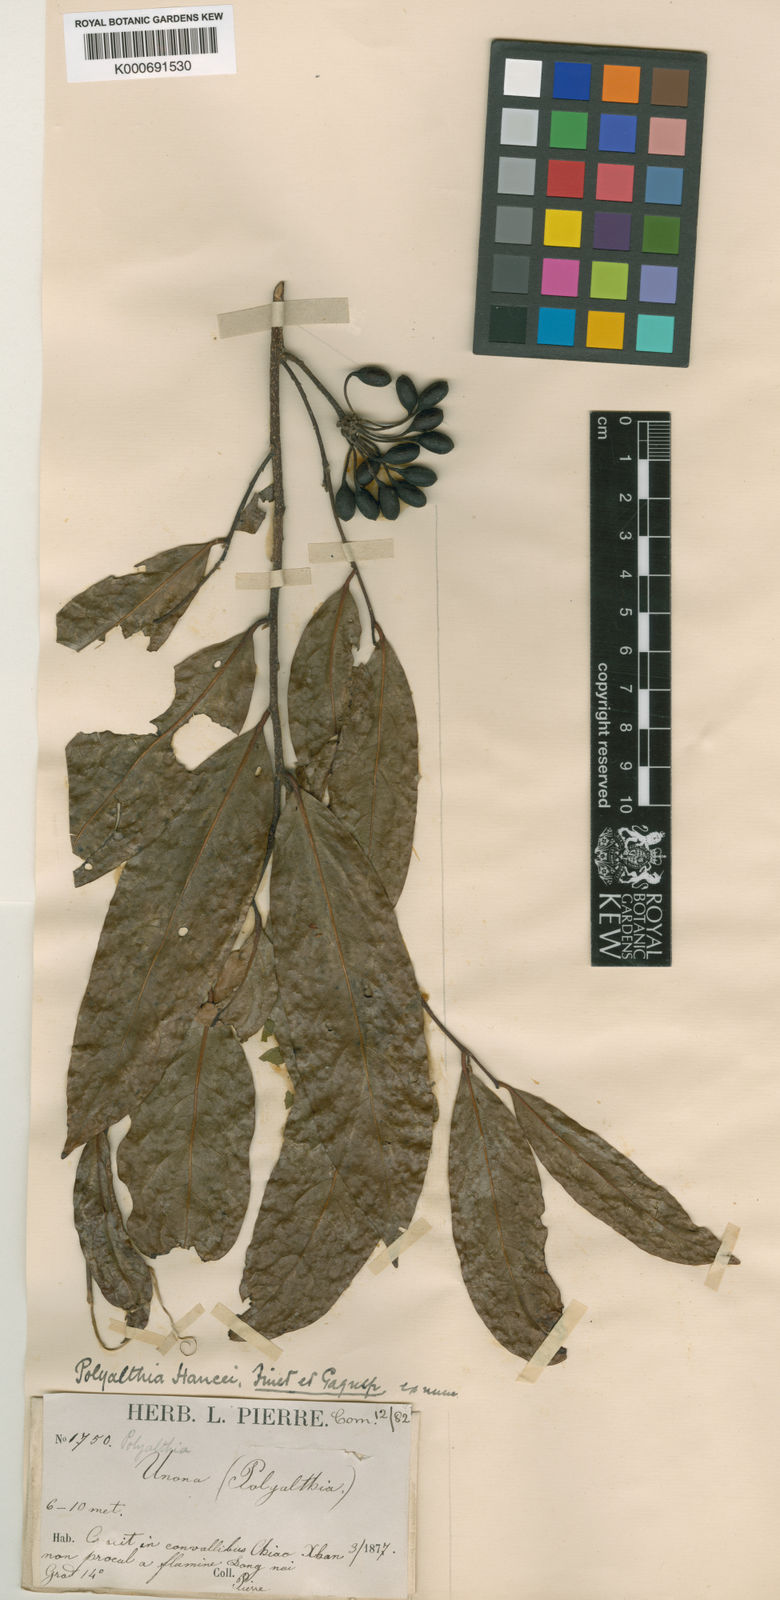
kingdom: Plantae
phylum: Tracheophyta
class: Magnoliopsida
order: Magnoliales
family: Annonaceae
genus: Hubera
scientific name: Hubera jenkinsii
